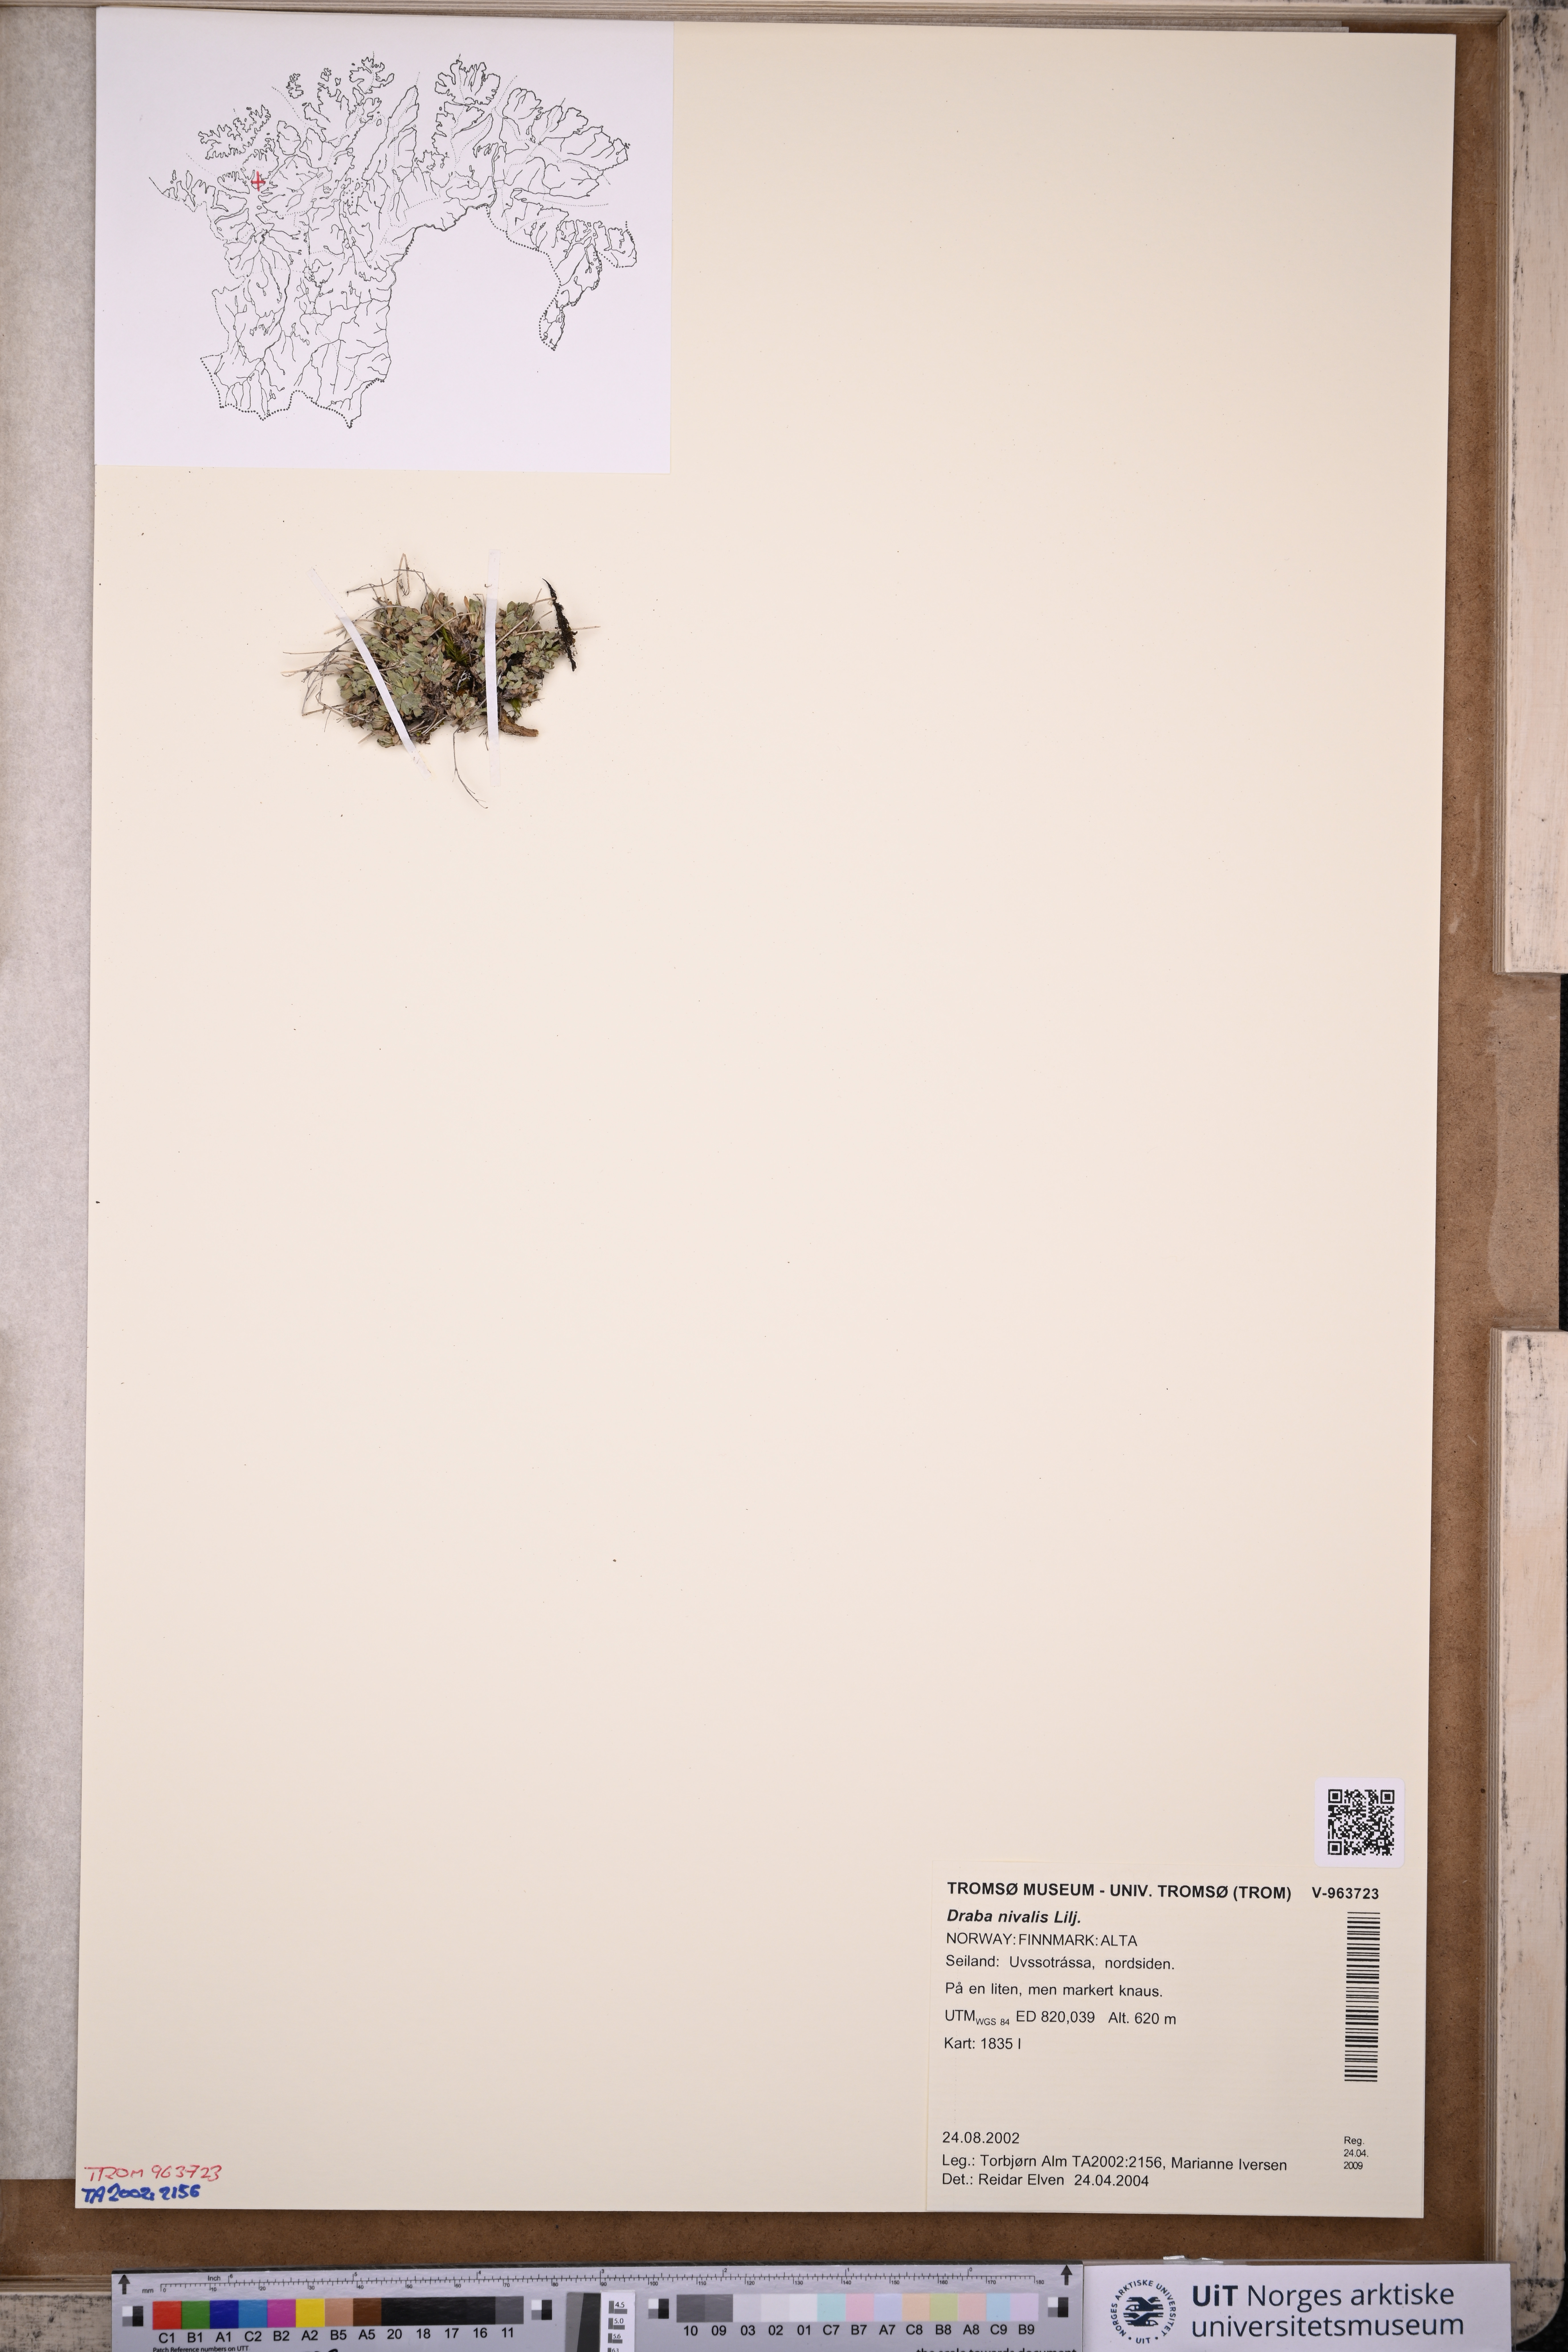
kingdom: Plantae
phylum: Tracheophyta
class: Magnoliopsida
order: Brassicales
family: Brassicaceae
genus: Draba
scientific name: Draba nivalis
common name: Snow draba
